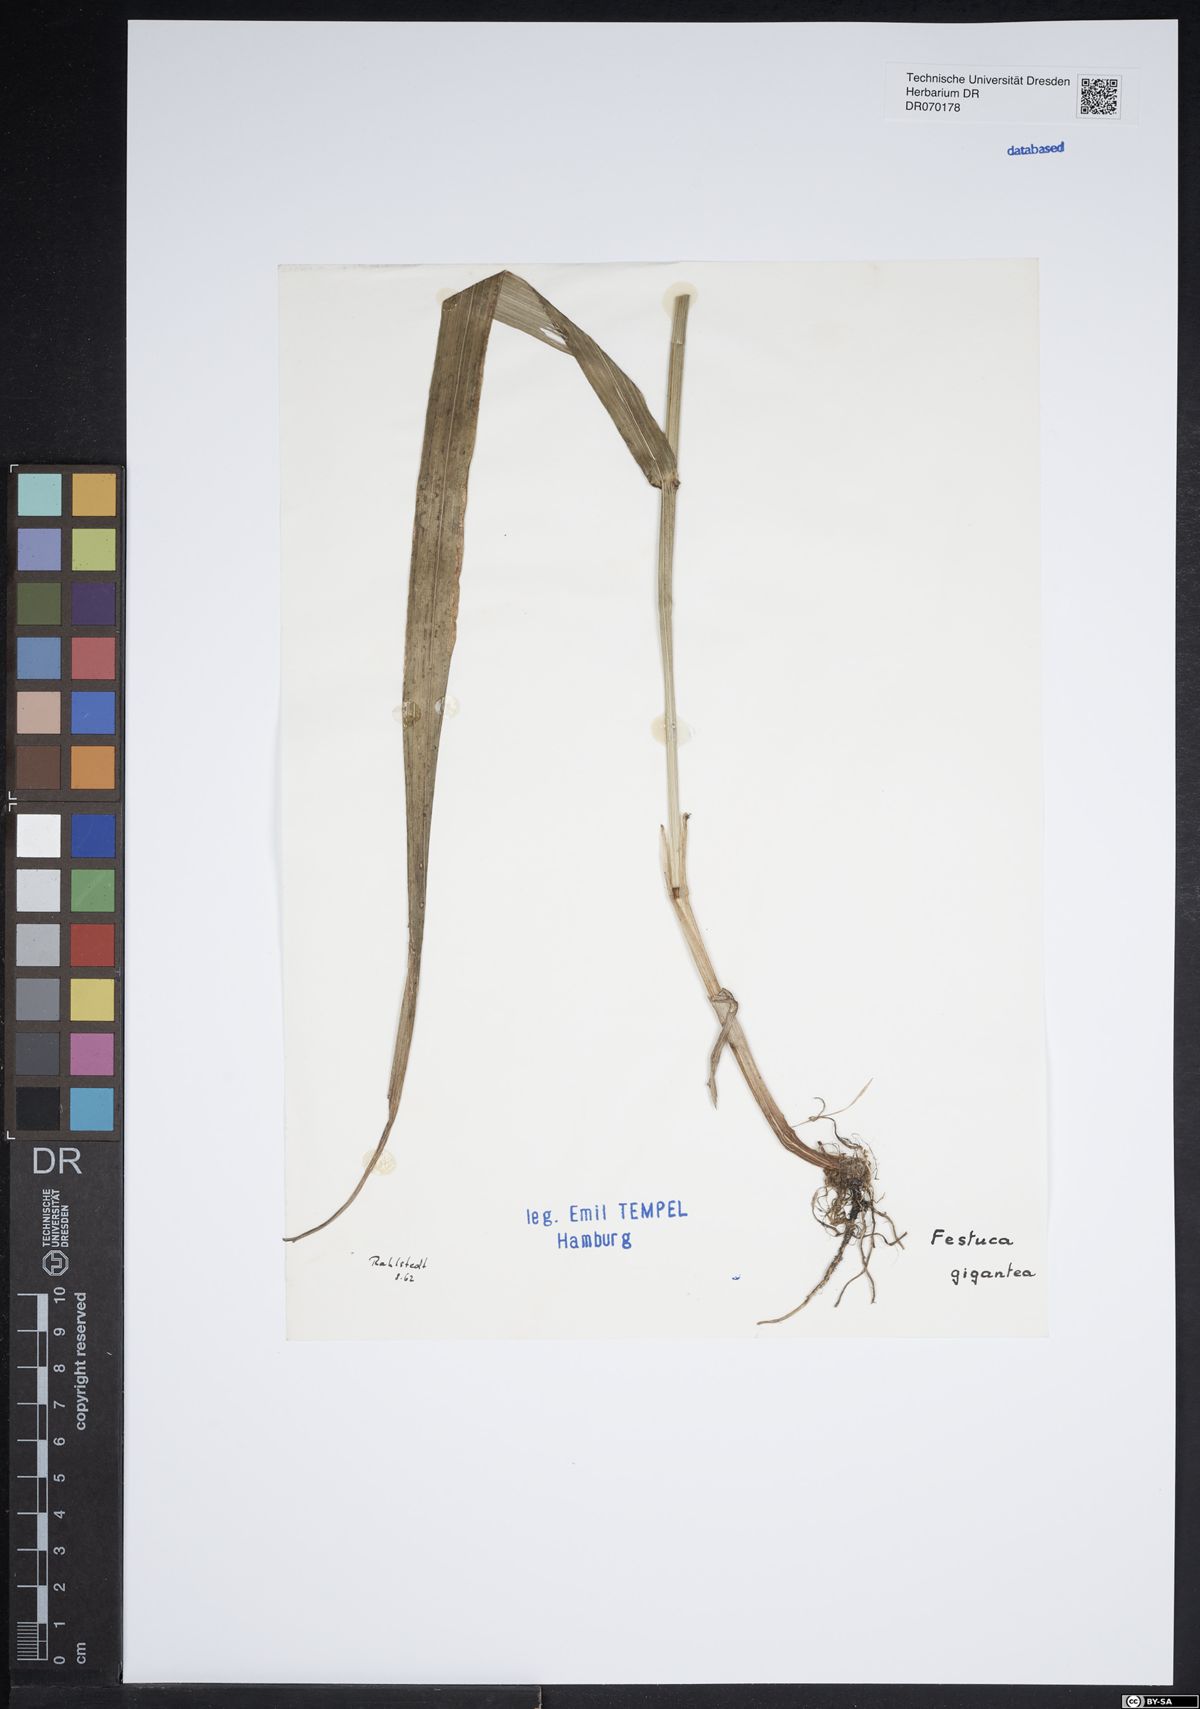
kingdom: Plantae
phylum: Tracheophyta
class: Liliopsida
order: Poales
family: Poaceae
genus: Lolium
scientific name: Lolium giganteum
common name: Giant fescue
